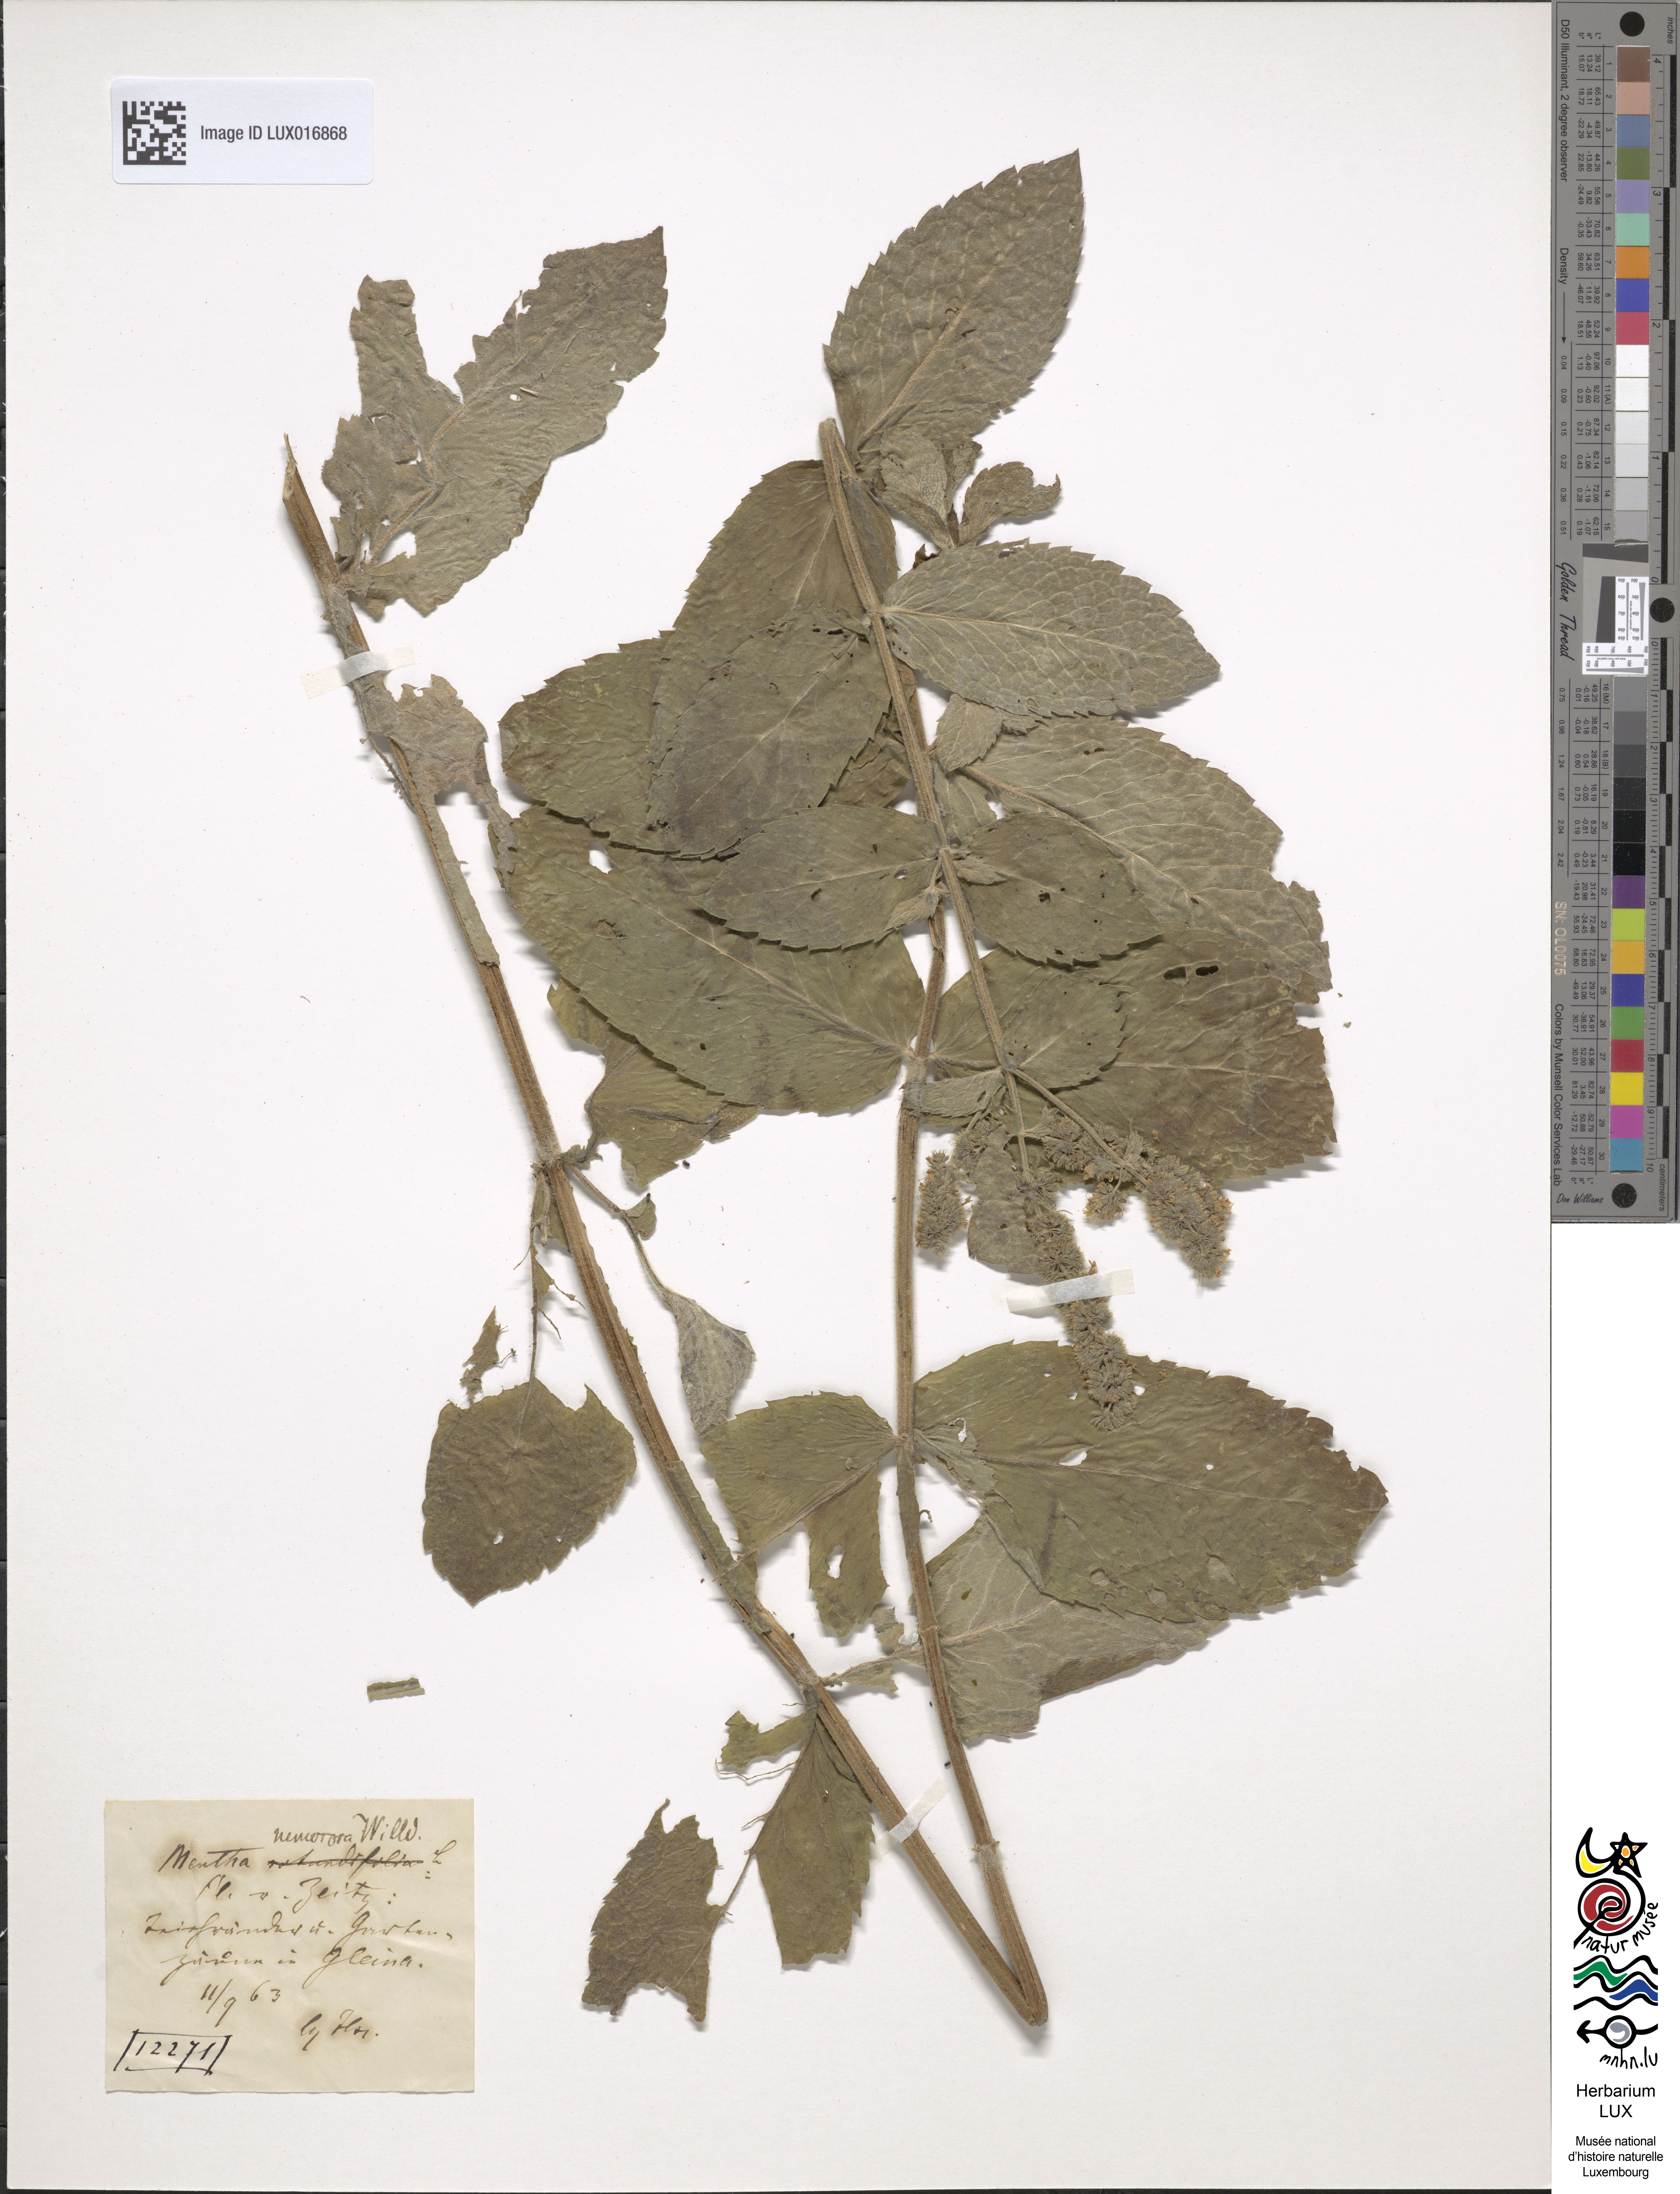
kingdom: Plantae
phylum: Tracheophyta
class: Magnoliopsida
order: Lamiales
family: Lamiaceae
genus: Mentha
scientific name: Mentha rotundifolia
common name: Bigleaf mint
